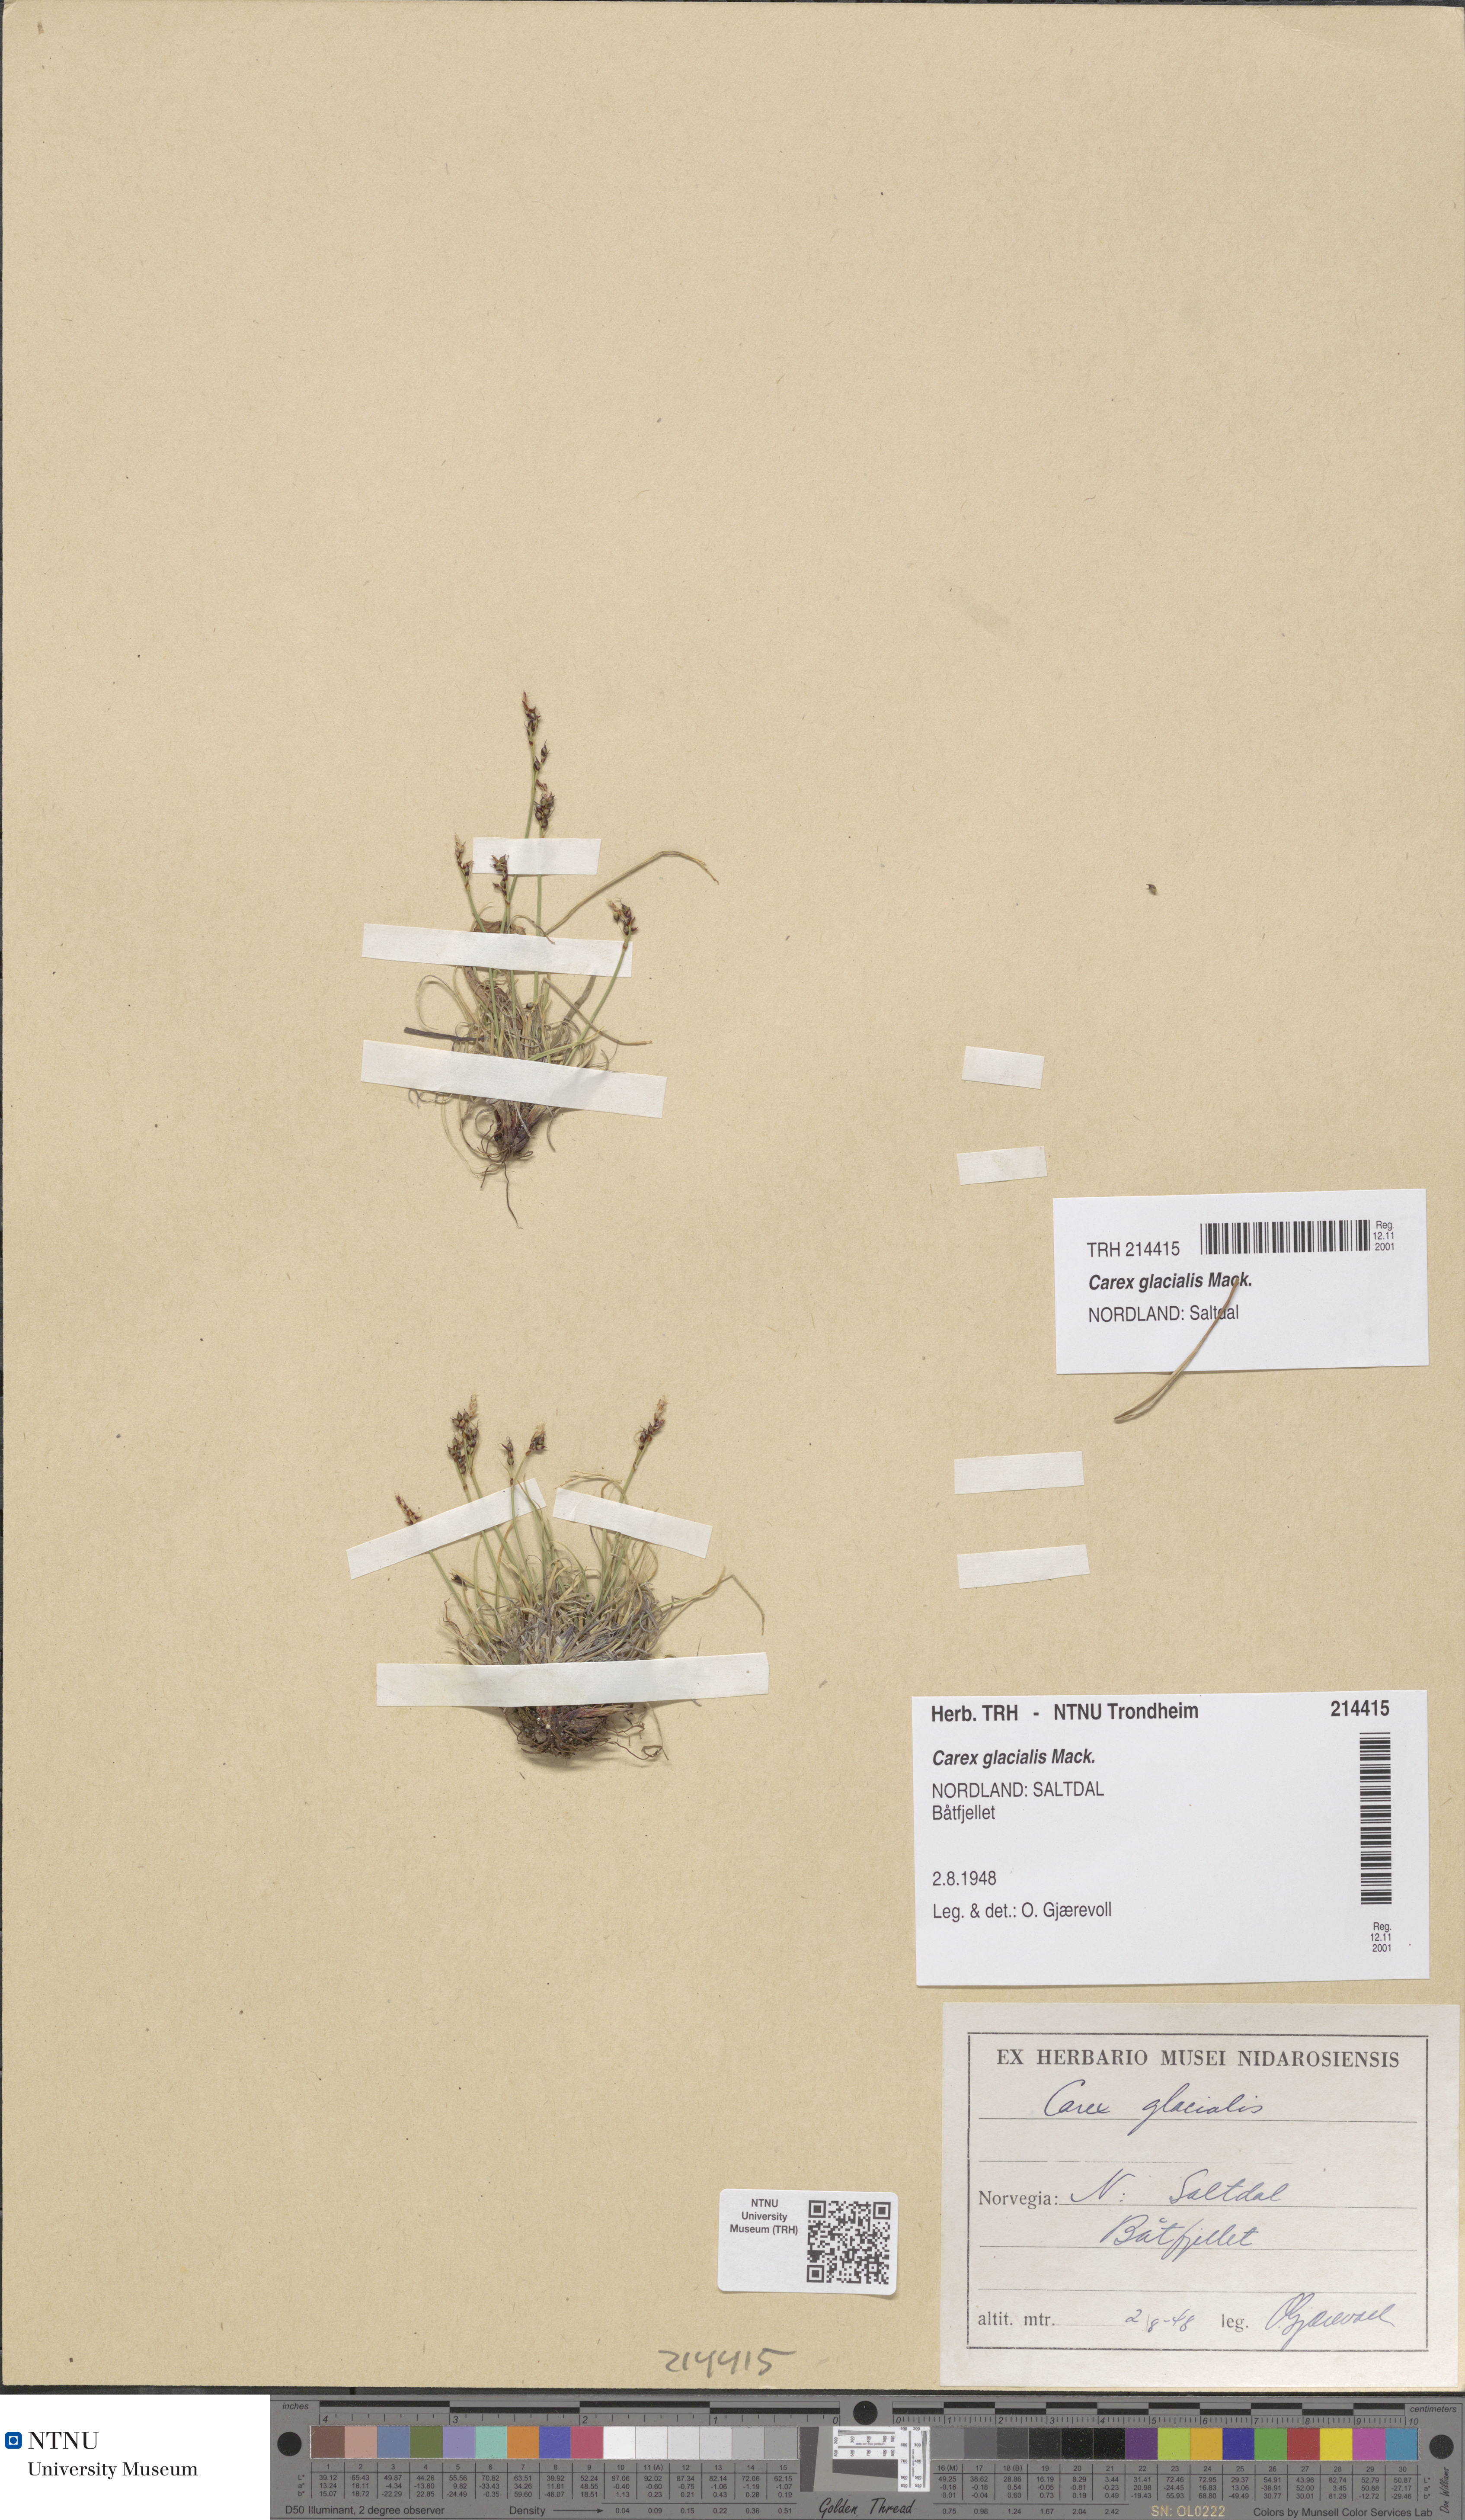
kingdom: Plantae
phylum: Tracheophyta
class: Liliopsida
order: Poales
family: Cyperaceae
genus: Carex
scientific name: Carex glacialis
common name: Newfoundland sedge
